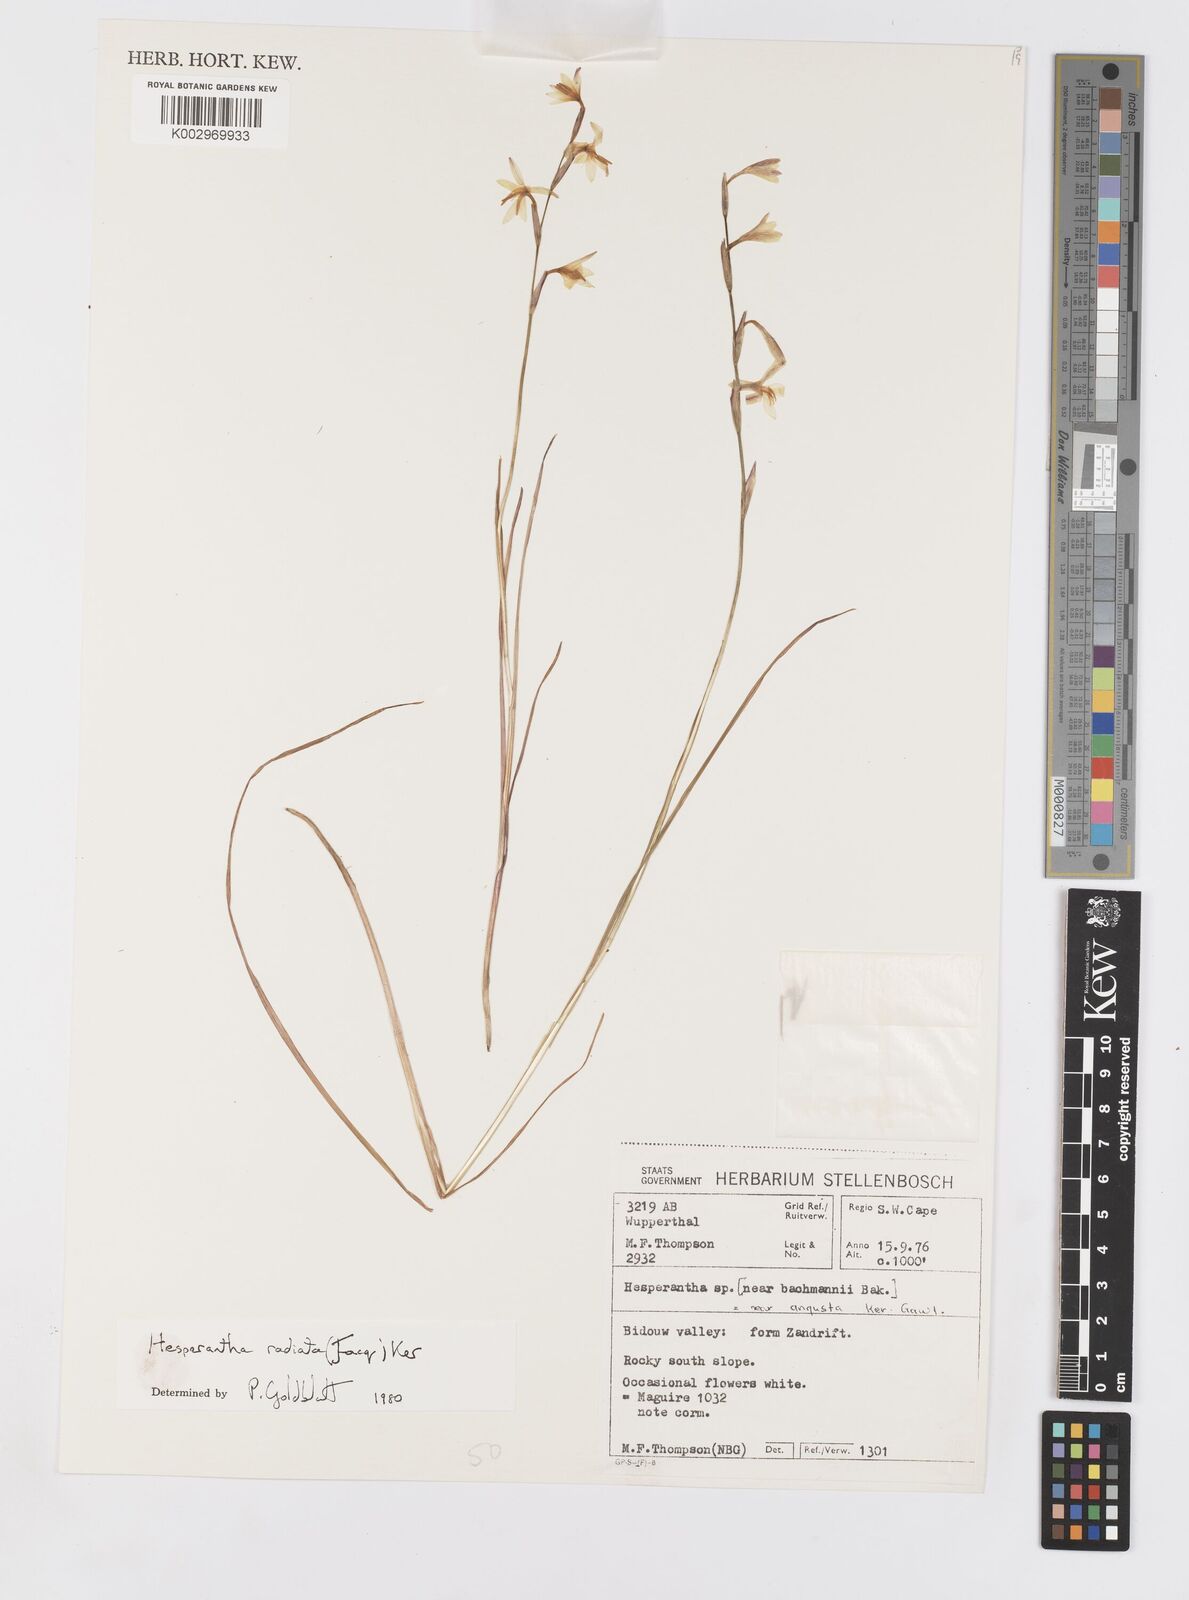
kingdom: Plantae
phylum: Tracheophyta
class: Liliopsida
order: Asparagales
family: Iridaceae
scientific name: Iridaceae
